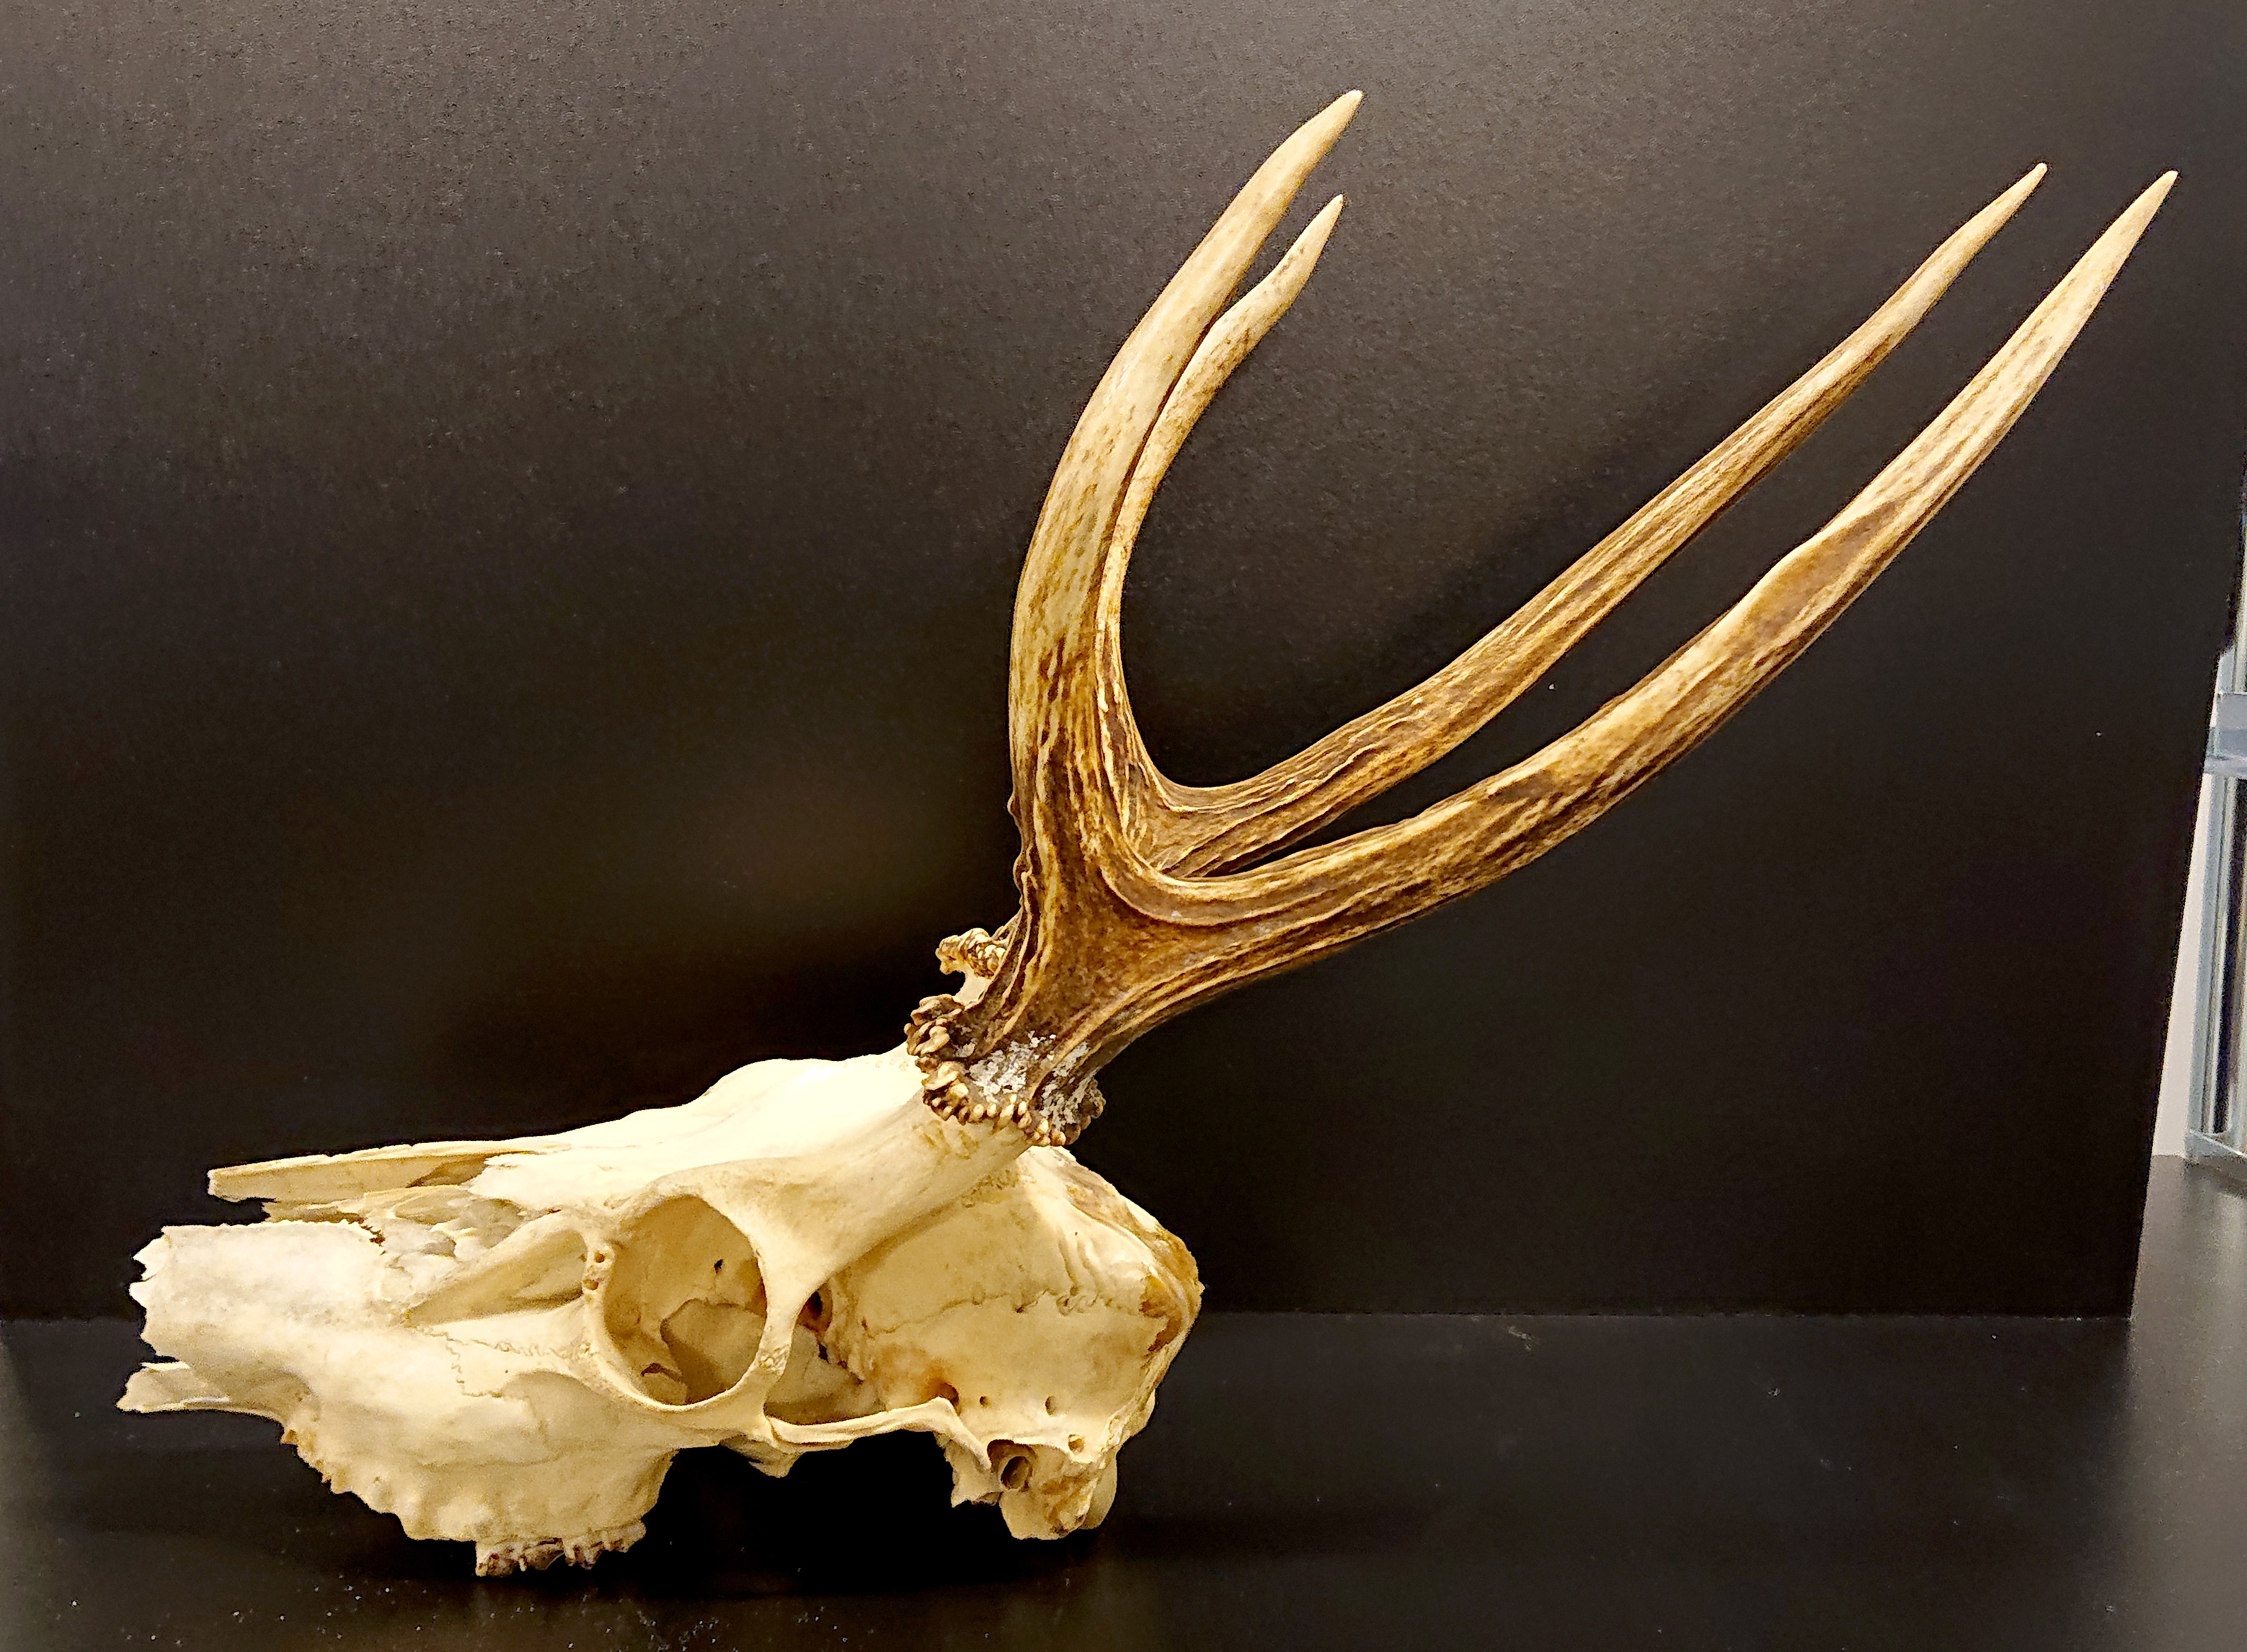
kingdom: Animalia
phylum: Chordata
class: Mammalia
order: Artiodactyla
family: Cervidae
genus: Hippocamelus
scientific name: Hippocamelus bisulcus
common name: South andean huemul
